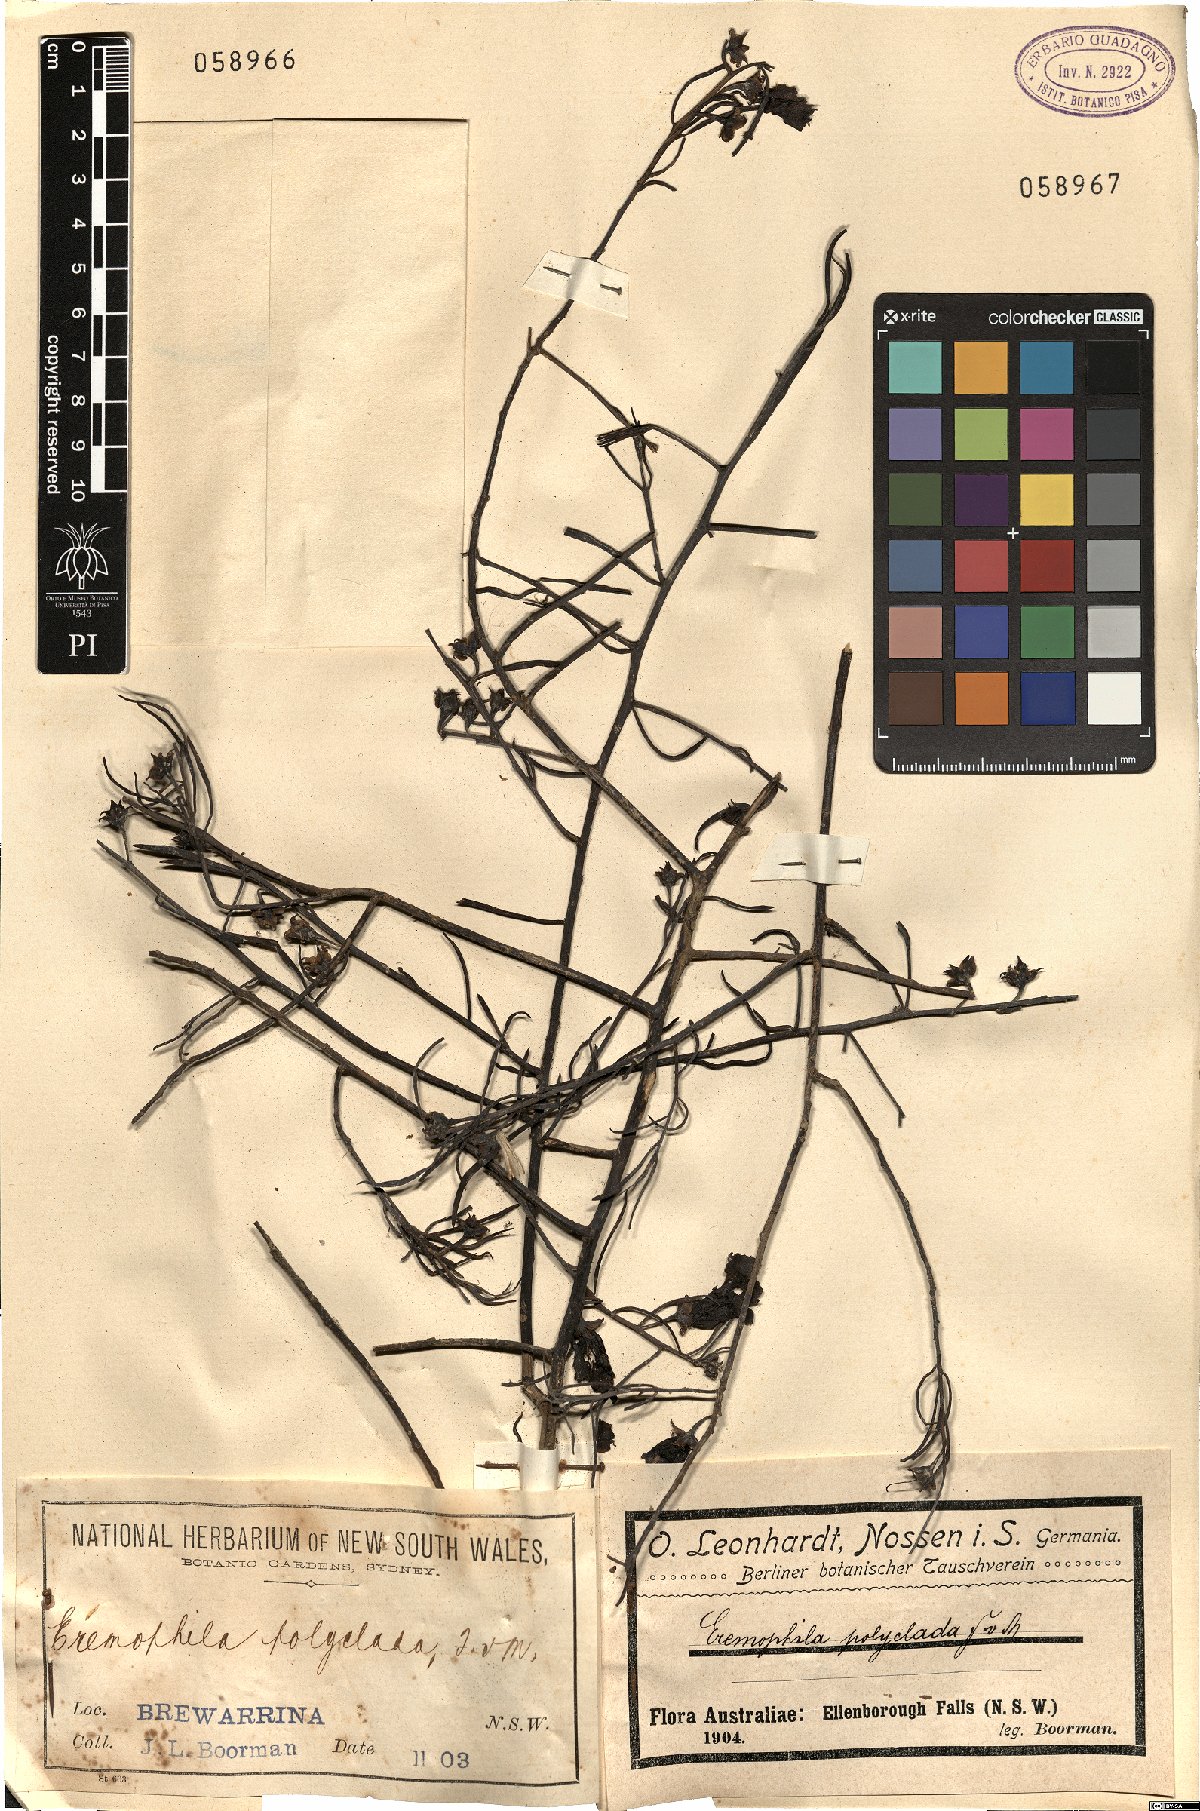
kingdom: Plantae
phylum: Tracheophyta
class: Magnoliopsida
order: Lamiales
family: Scrophulariaceae
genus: Eremophila
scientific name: Eremophila polyclada
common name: Lignum-fuchsia
